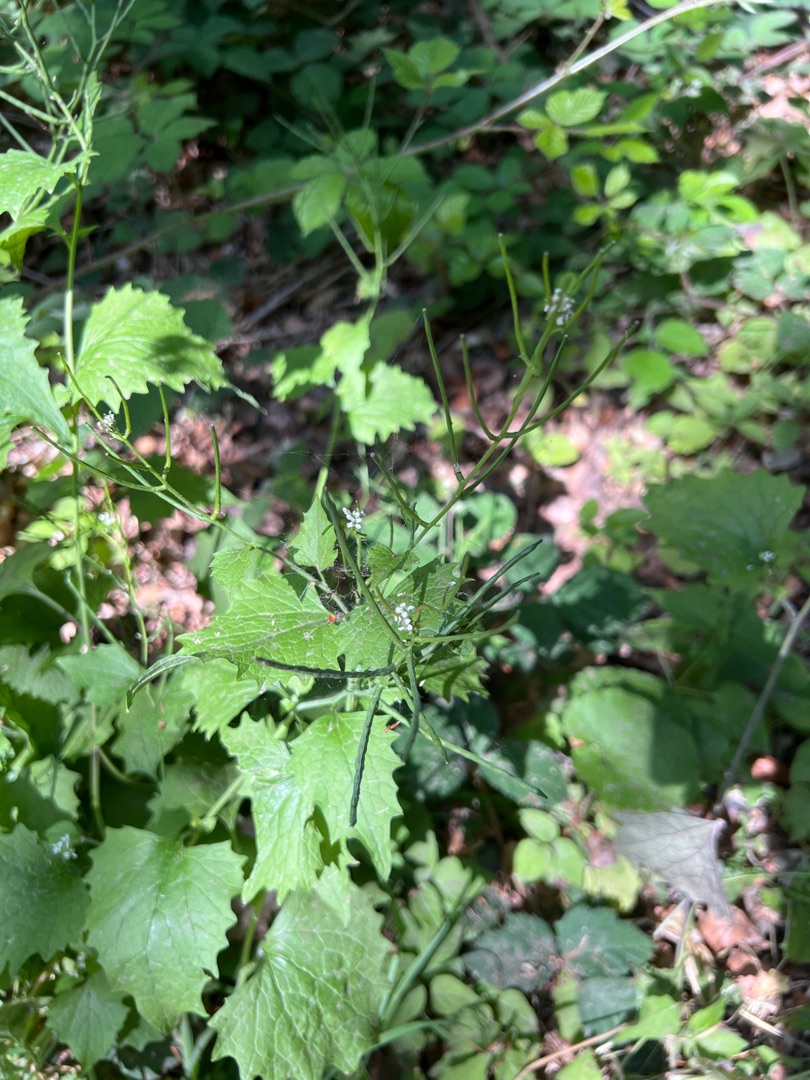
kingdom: Plantae
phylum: Tracheophyta
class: Magnoliopsida
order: Brassicales
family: Brassicaceae
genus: Alliaria
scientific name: Alliaria petiolata
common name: Løgkarse
